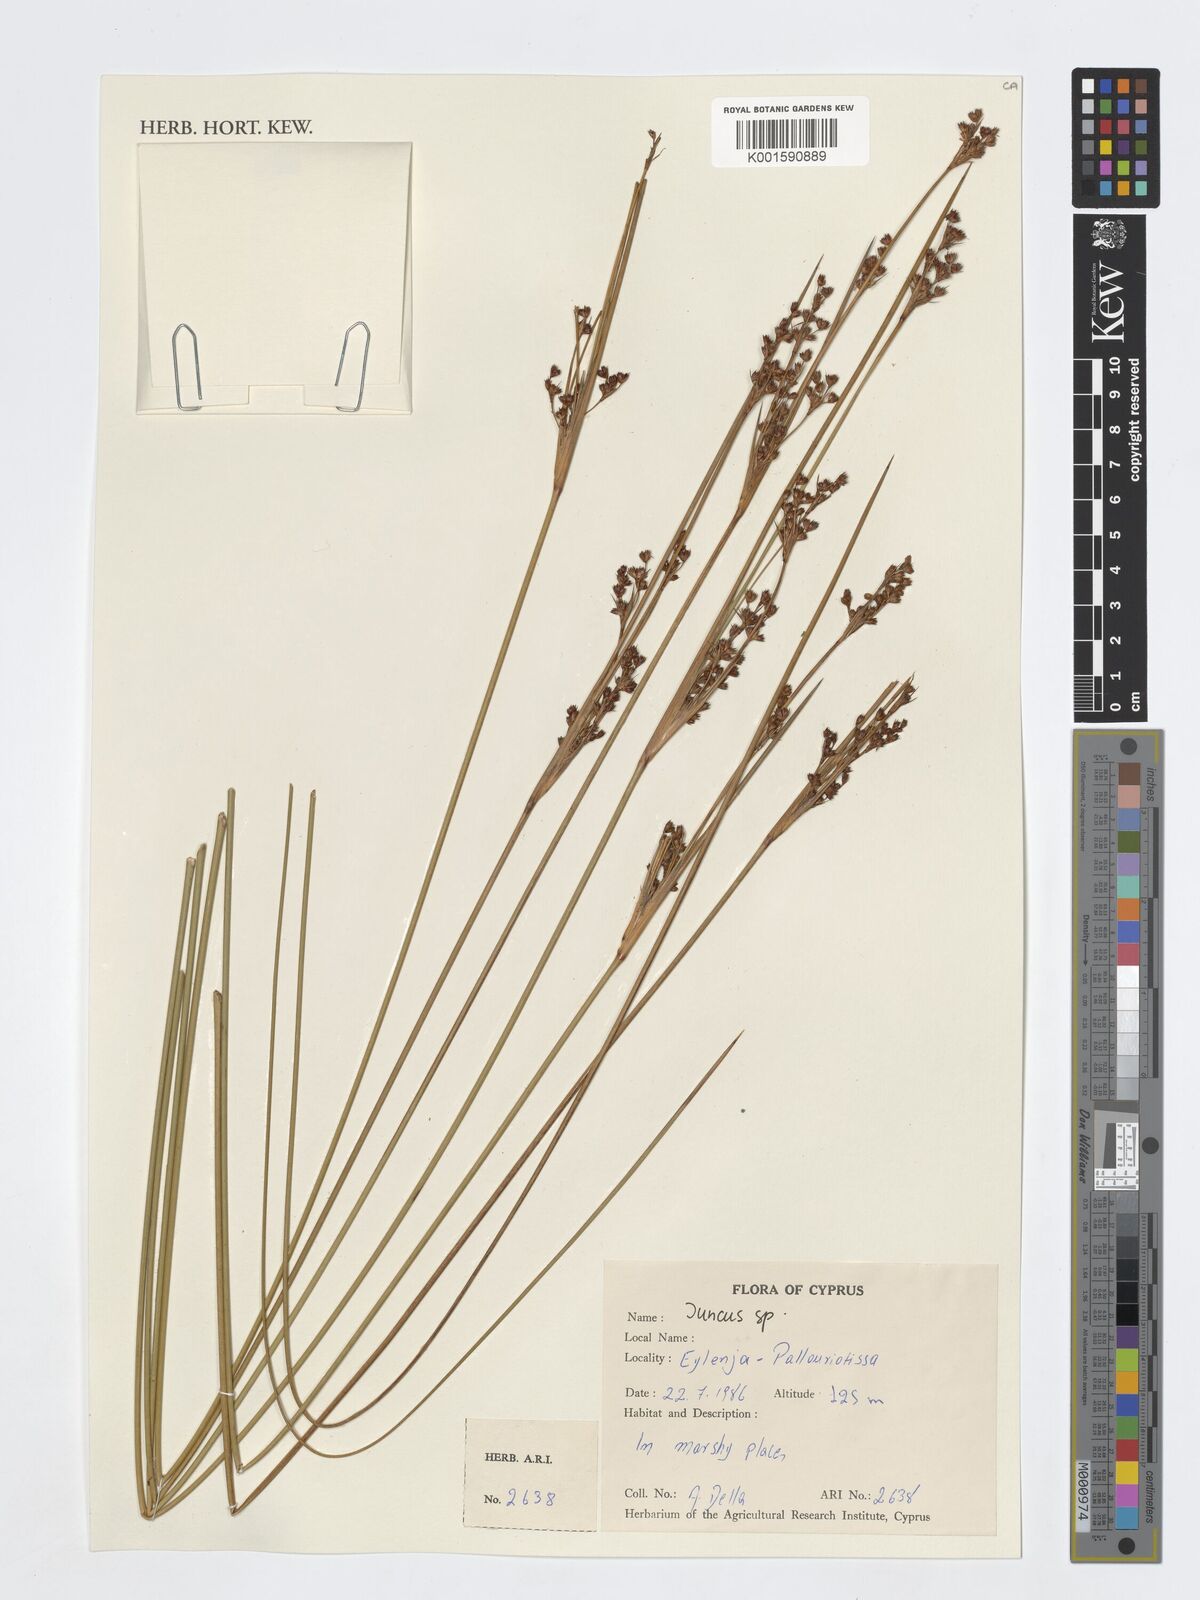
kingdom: Plantae
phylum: Tracheophyta
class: Liliopsida
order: Poales
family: Juncaceae
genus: Juncus
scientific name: Juncus
